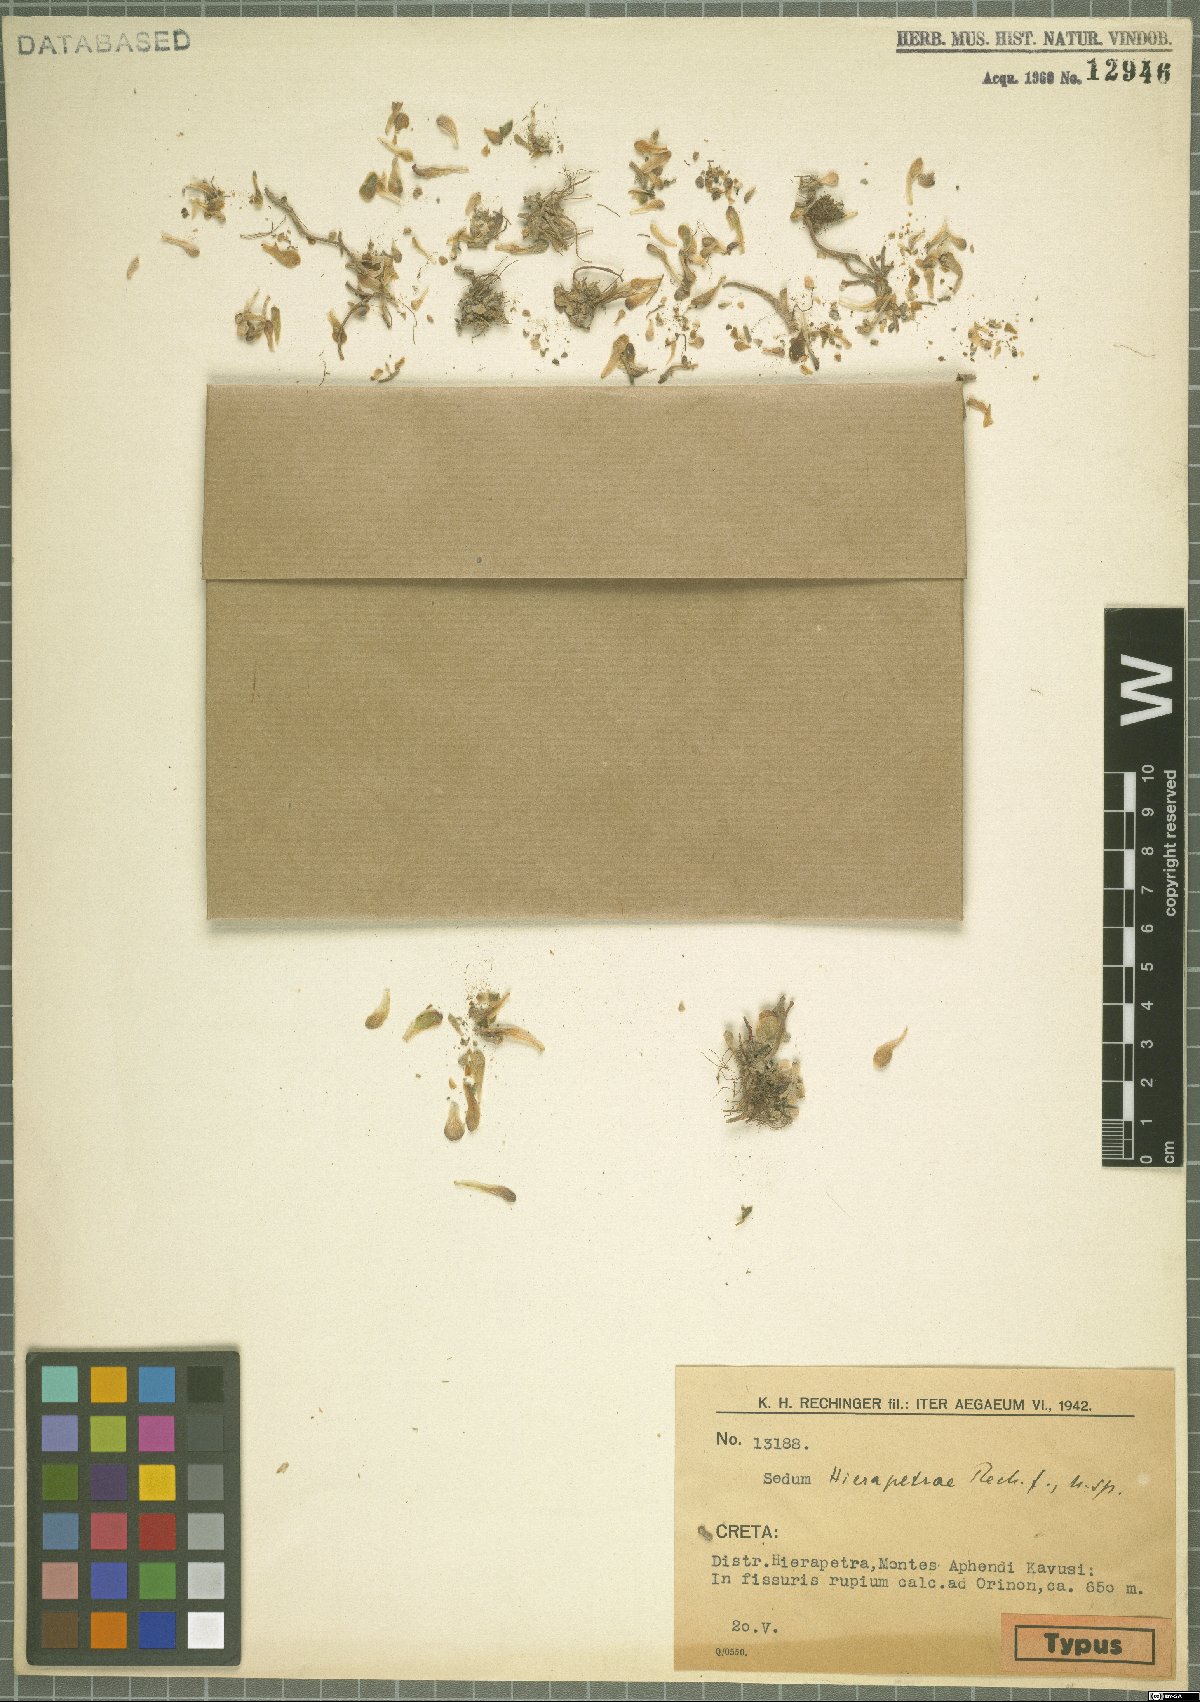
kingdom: Plantae
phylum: Tracheophyta
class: Magnoliopsida
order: Saxifragales
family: Crassulaceae
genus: Sedum
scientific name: Sedum creticum
